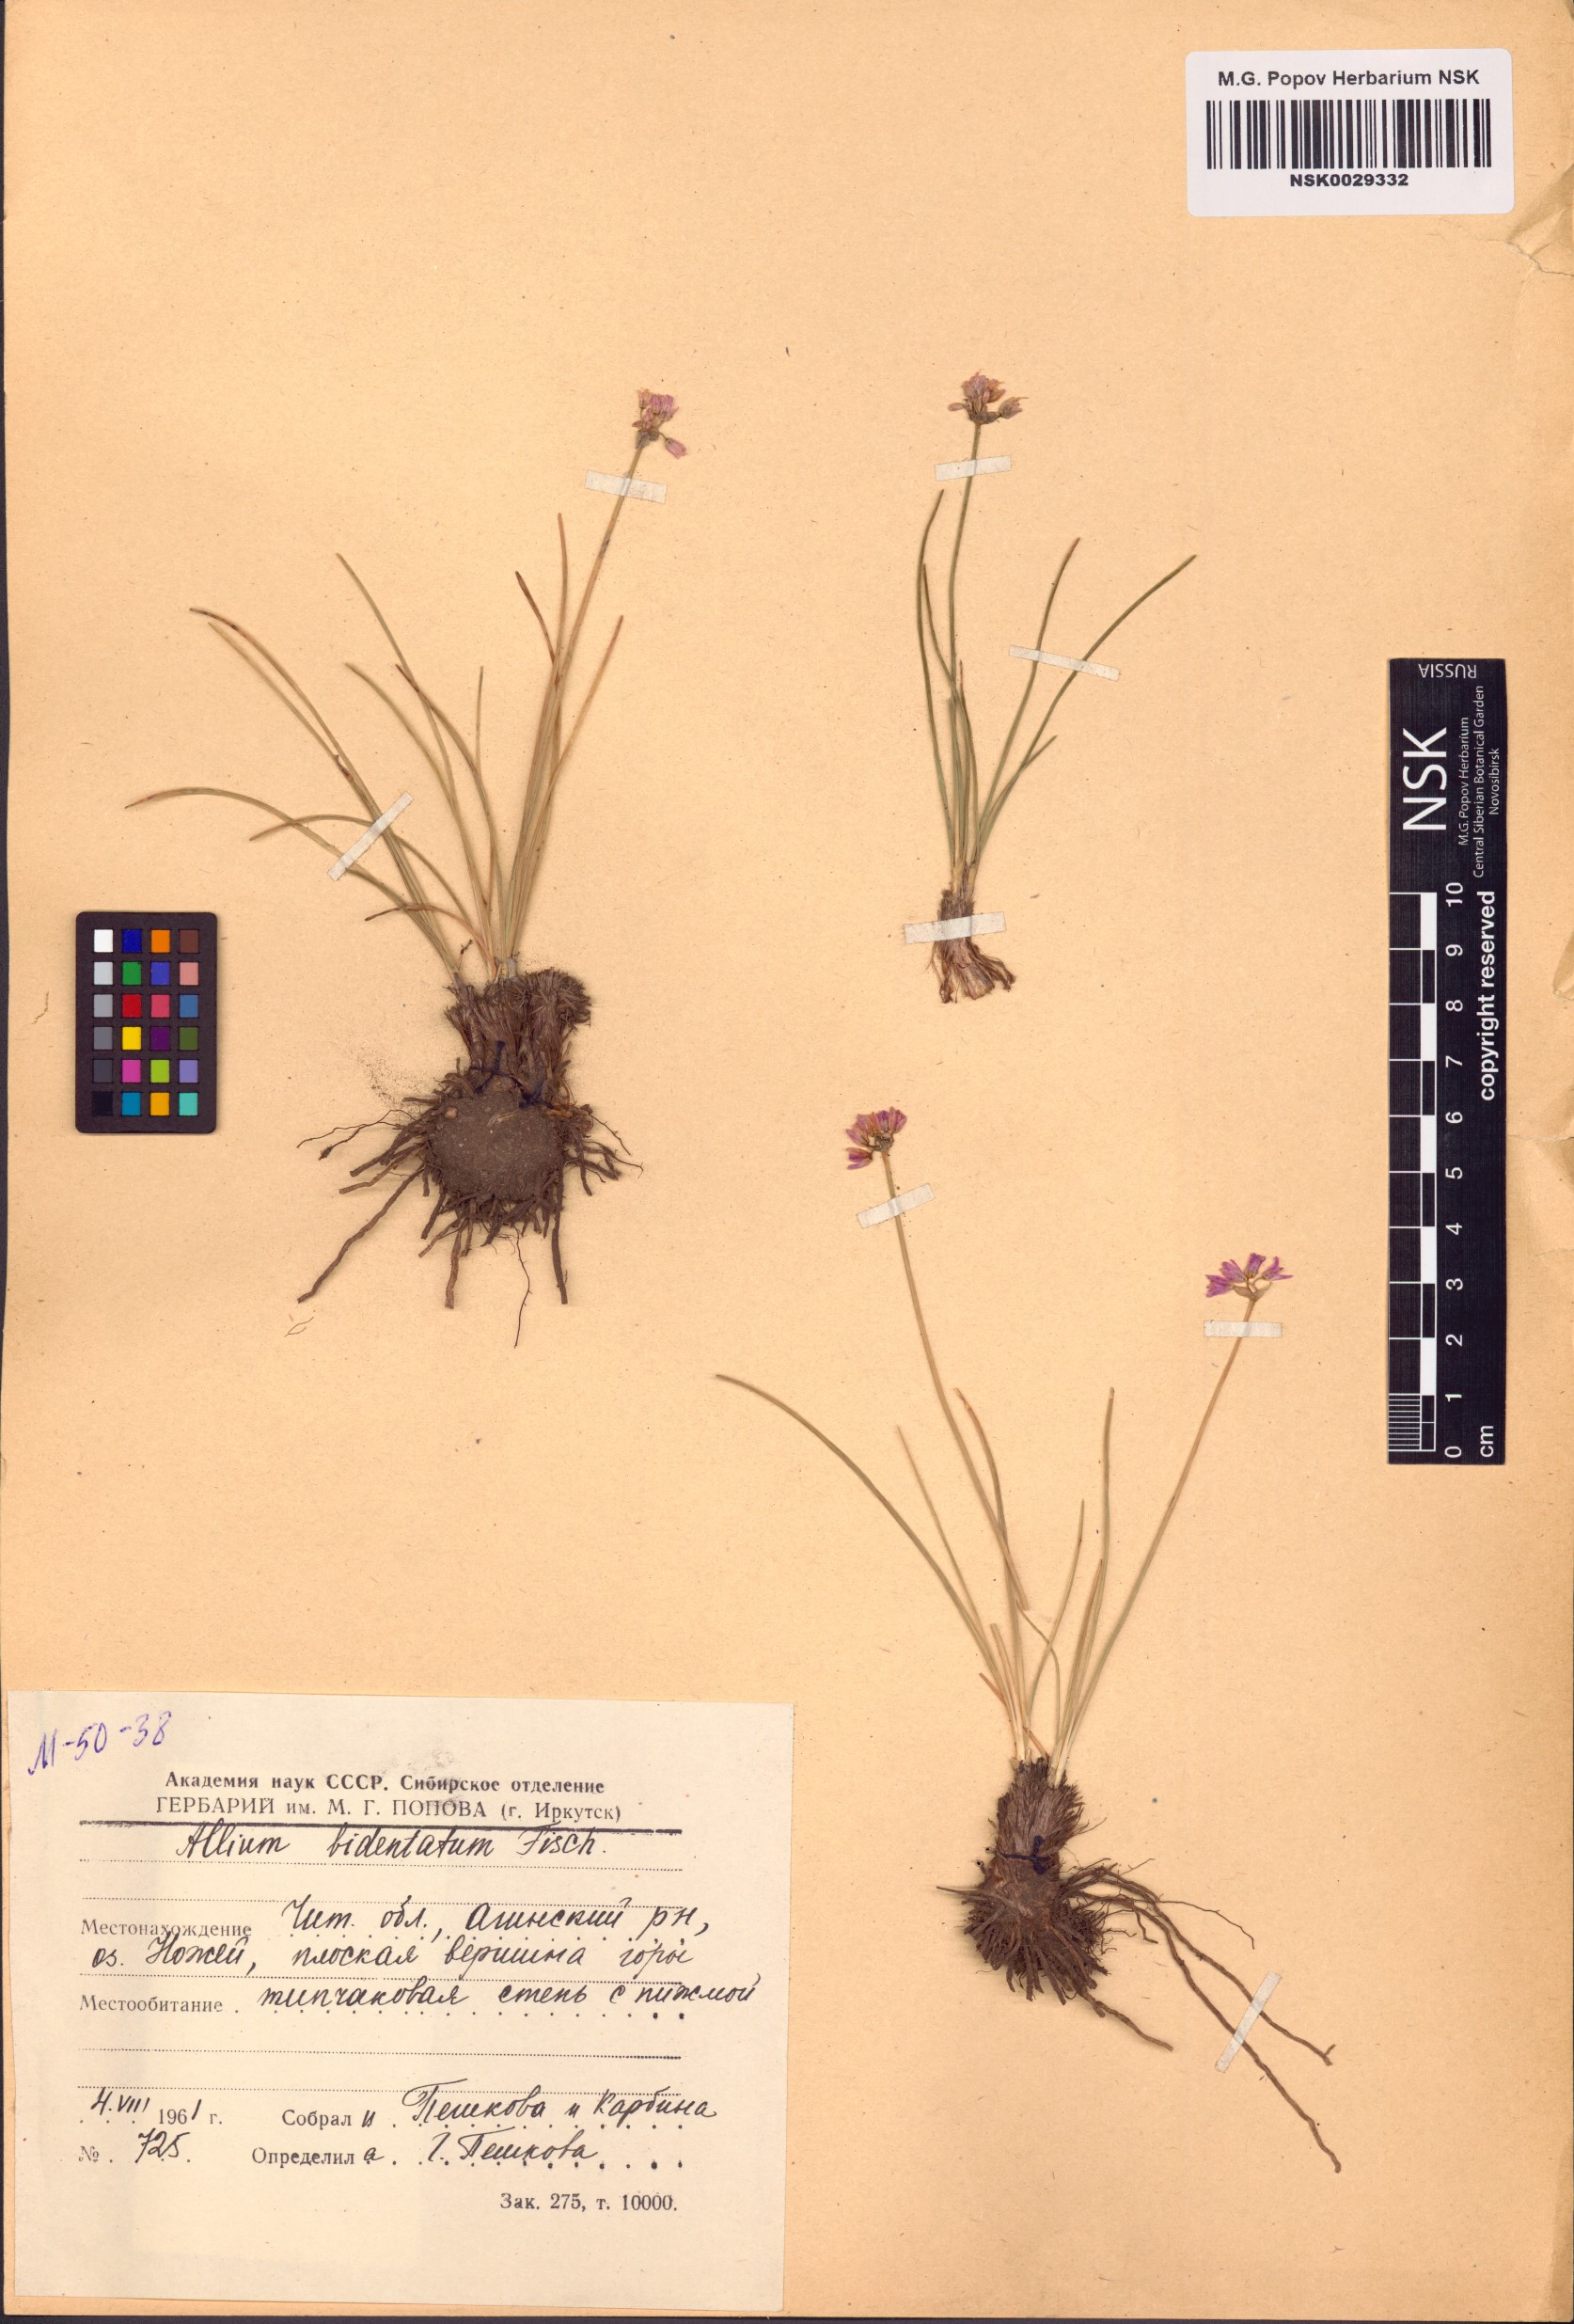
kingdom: Plantae
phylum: Tracheophyta
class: Liliopsida
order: Asparagales
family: Amaryllidaceae
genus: Allium
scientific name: Allium bidentatum
